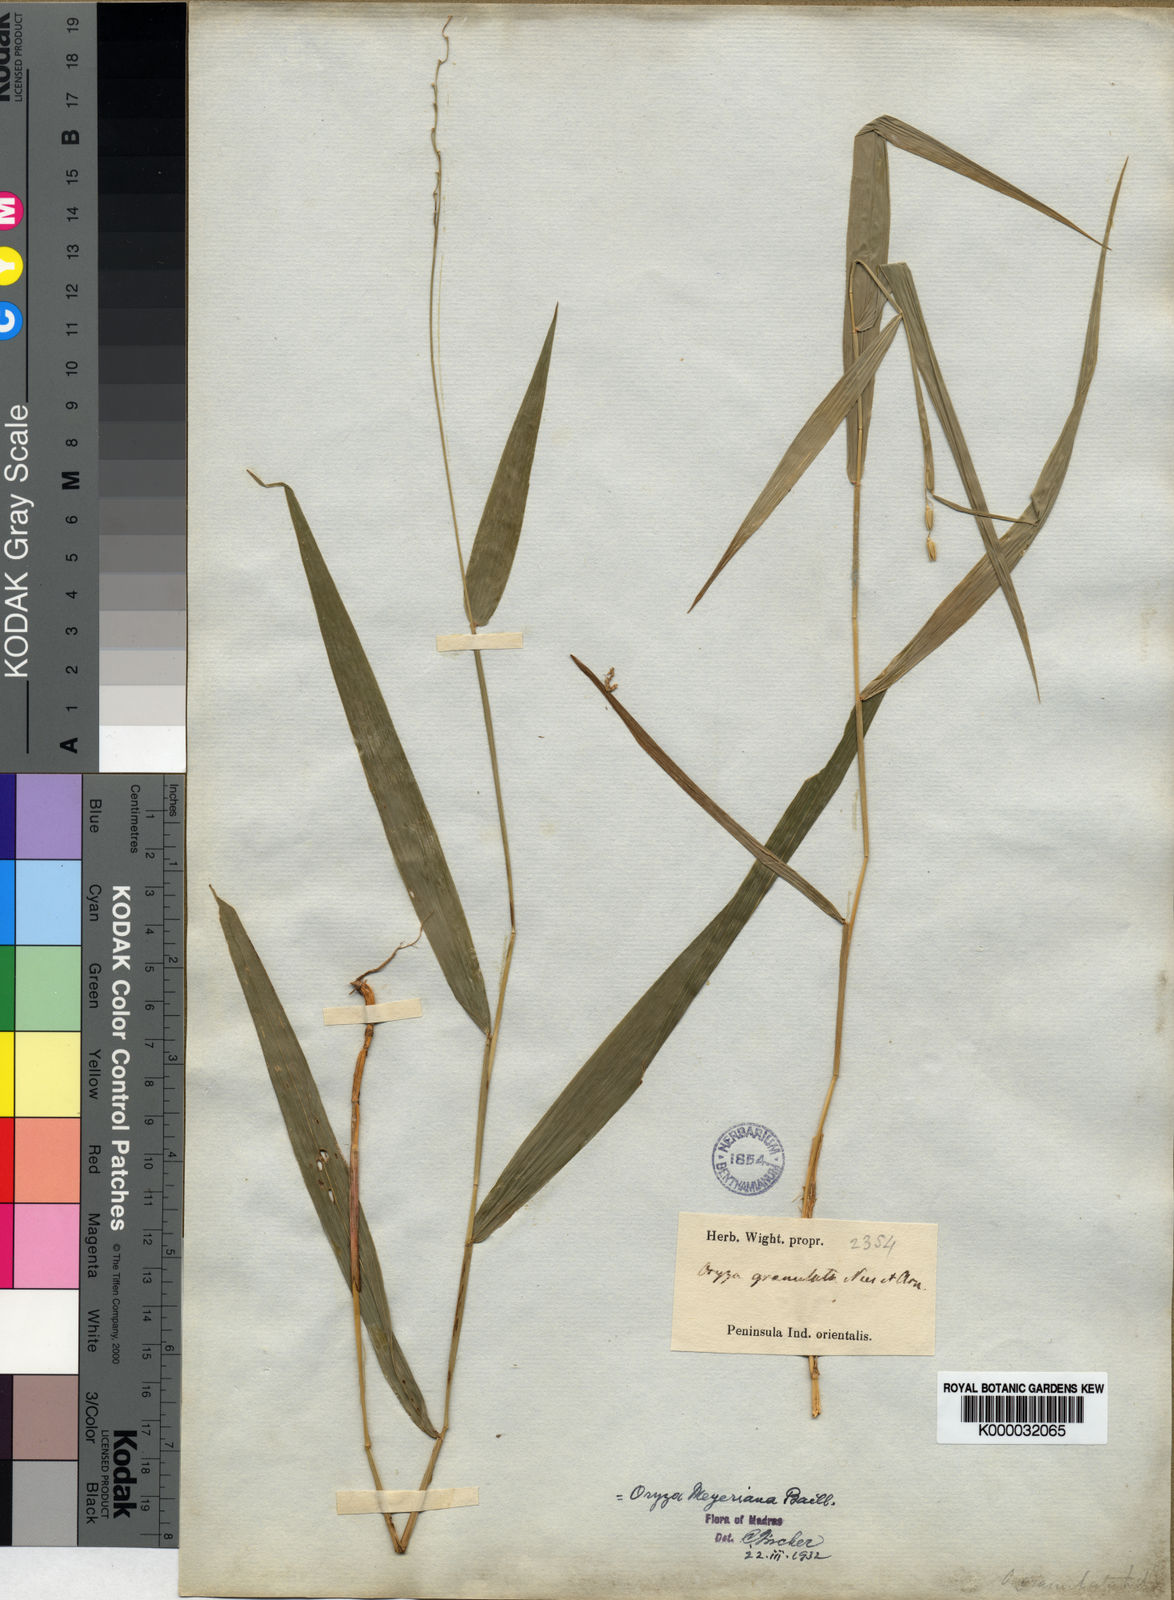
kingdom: Plantae
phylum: Tracheophyta
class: Liliopsida
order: Poales
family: Poaceae
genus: Oryza
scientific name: Oryza meyeriana
